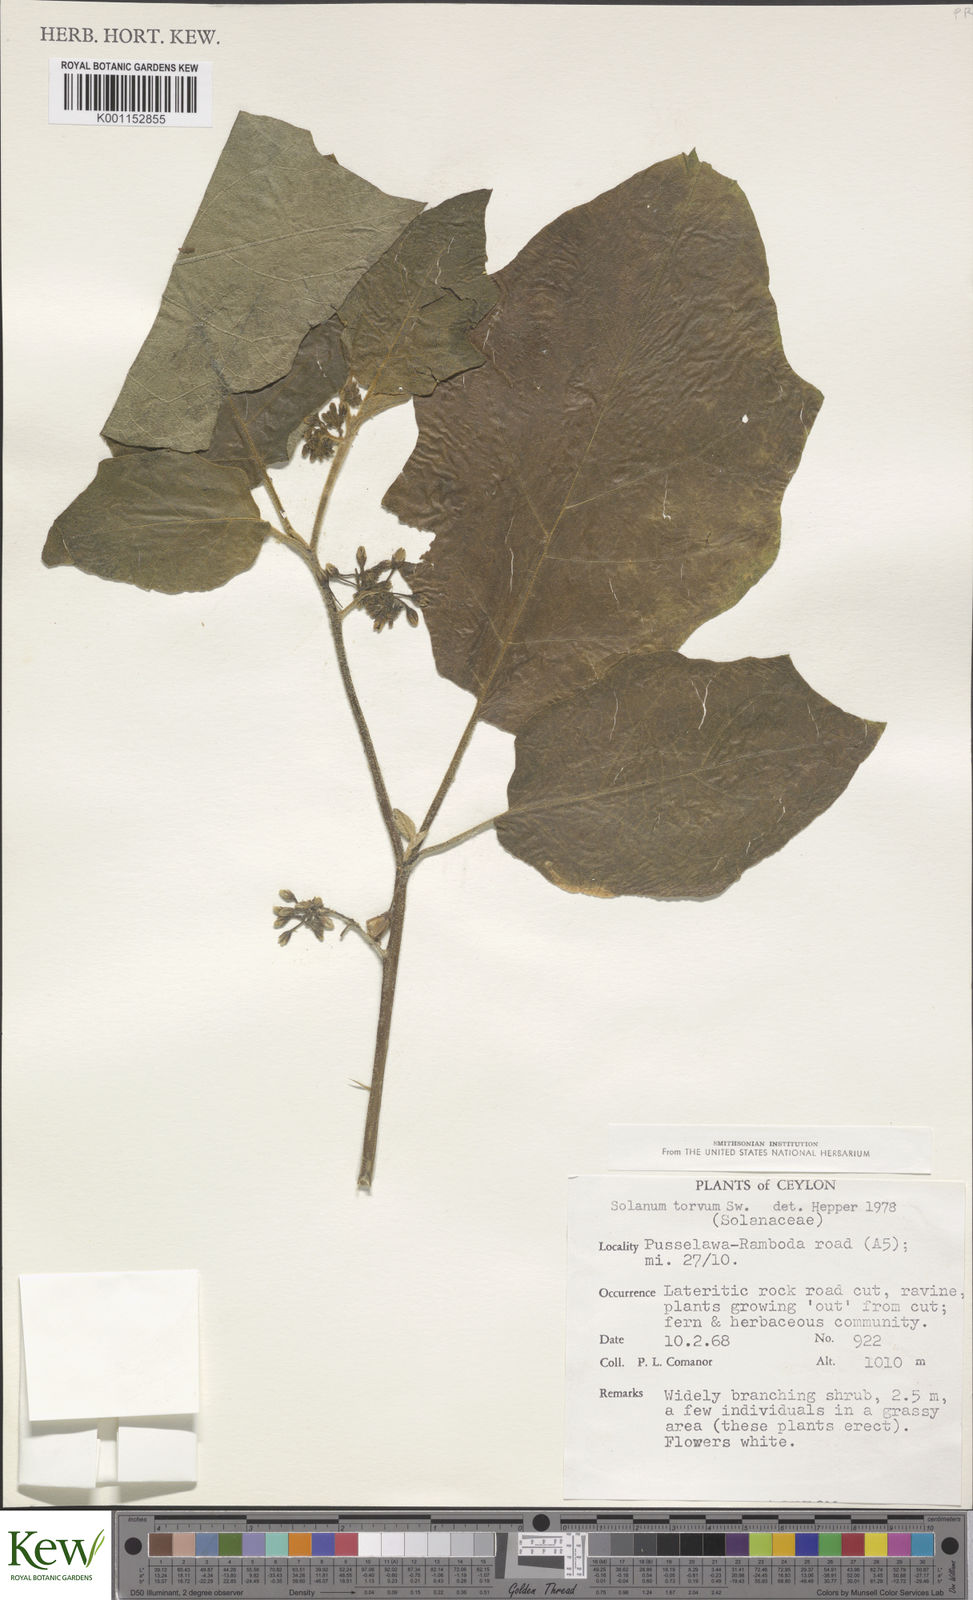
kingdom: Plantae
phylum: Tracheophyta
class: Magnoliopsida
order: Solanales
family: Solanaceae
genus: Solanum
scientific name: Solanum torvum
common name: Turkey berry
